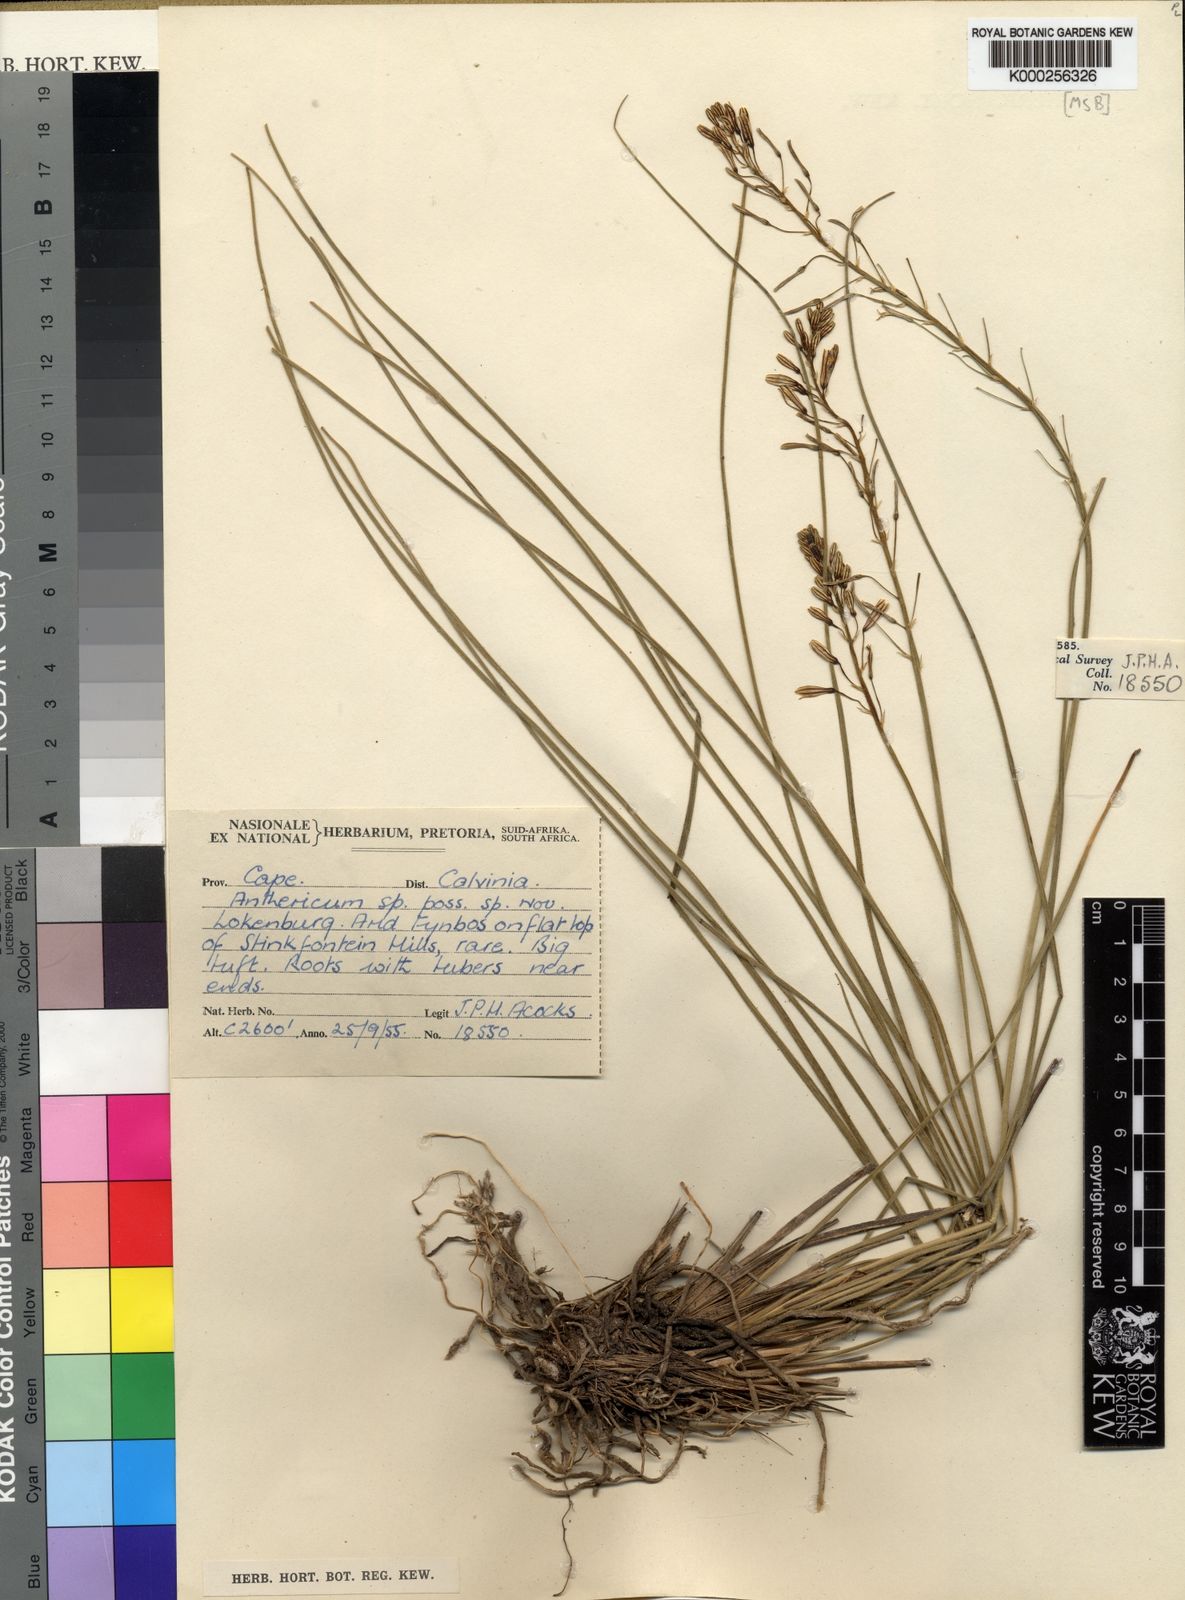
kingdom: Plantae
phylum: Tracheophyta
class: Liliopsida
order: Asparagales
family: Asphodelaceae
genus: Trachyandra
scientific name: Trachyandra gracilenta
